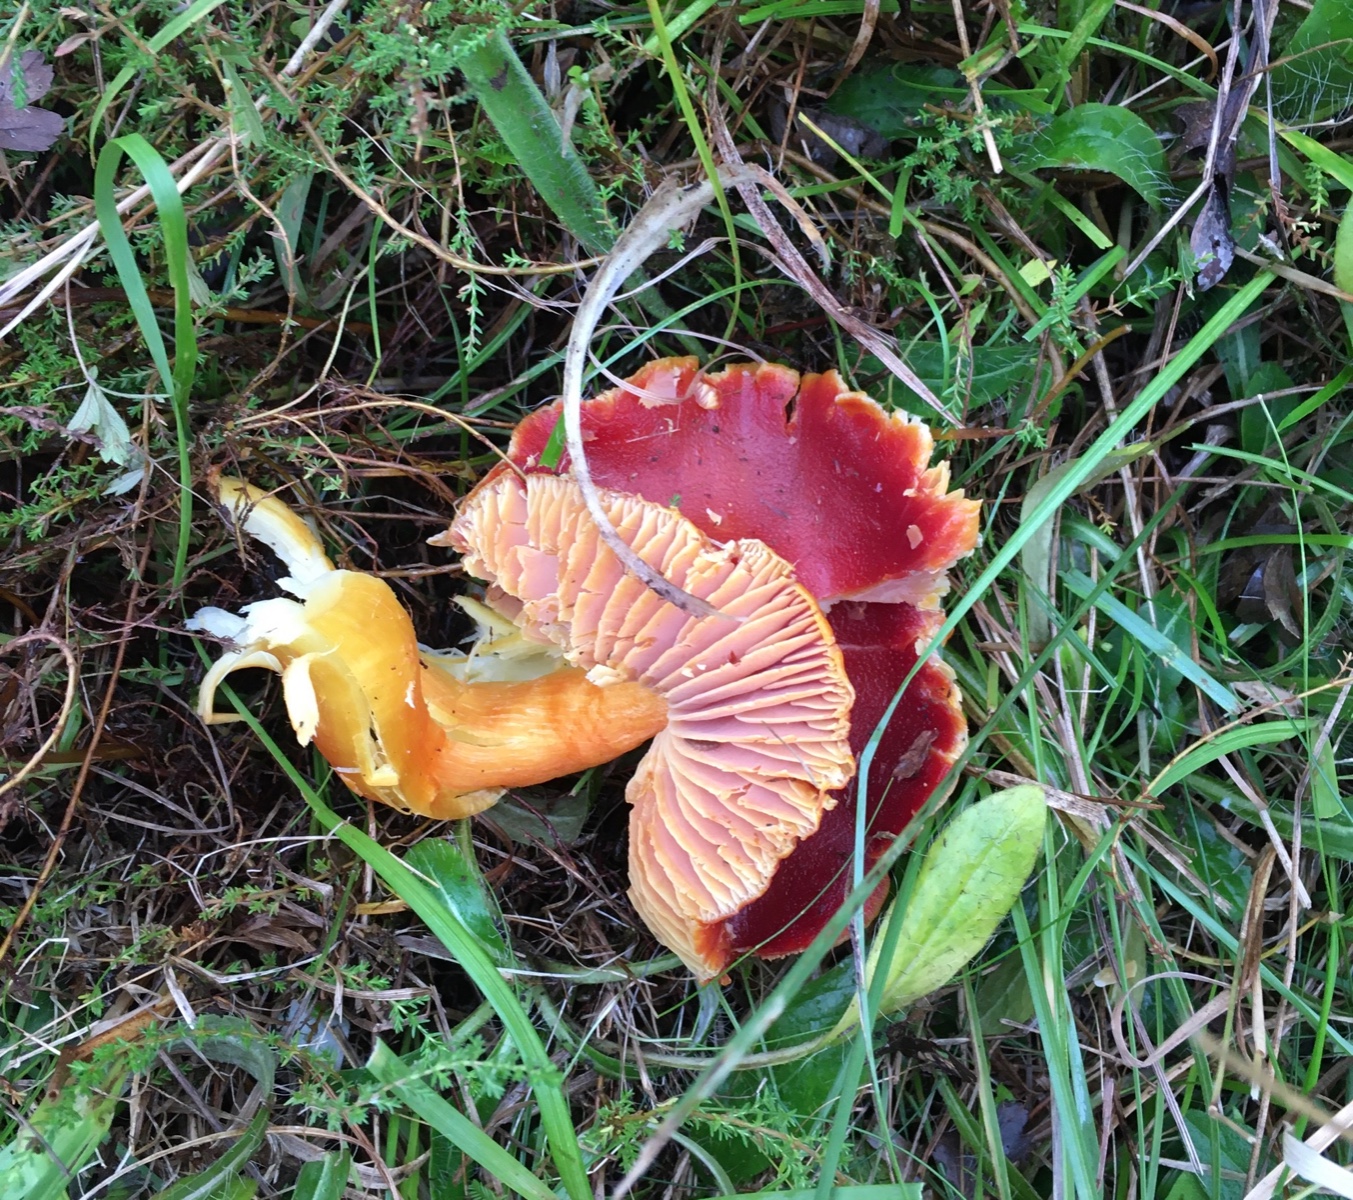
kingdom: Fungi
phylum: Basidiomycota
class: Agaricomycetes
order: Agaricales
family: Hygrophoraceae
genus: Hygrocybe
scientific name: Hygrocybe punicea
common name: skarlagen-vokshat
